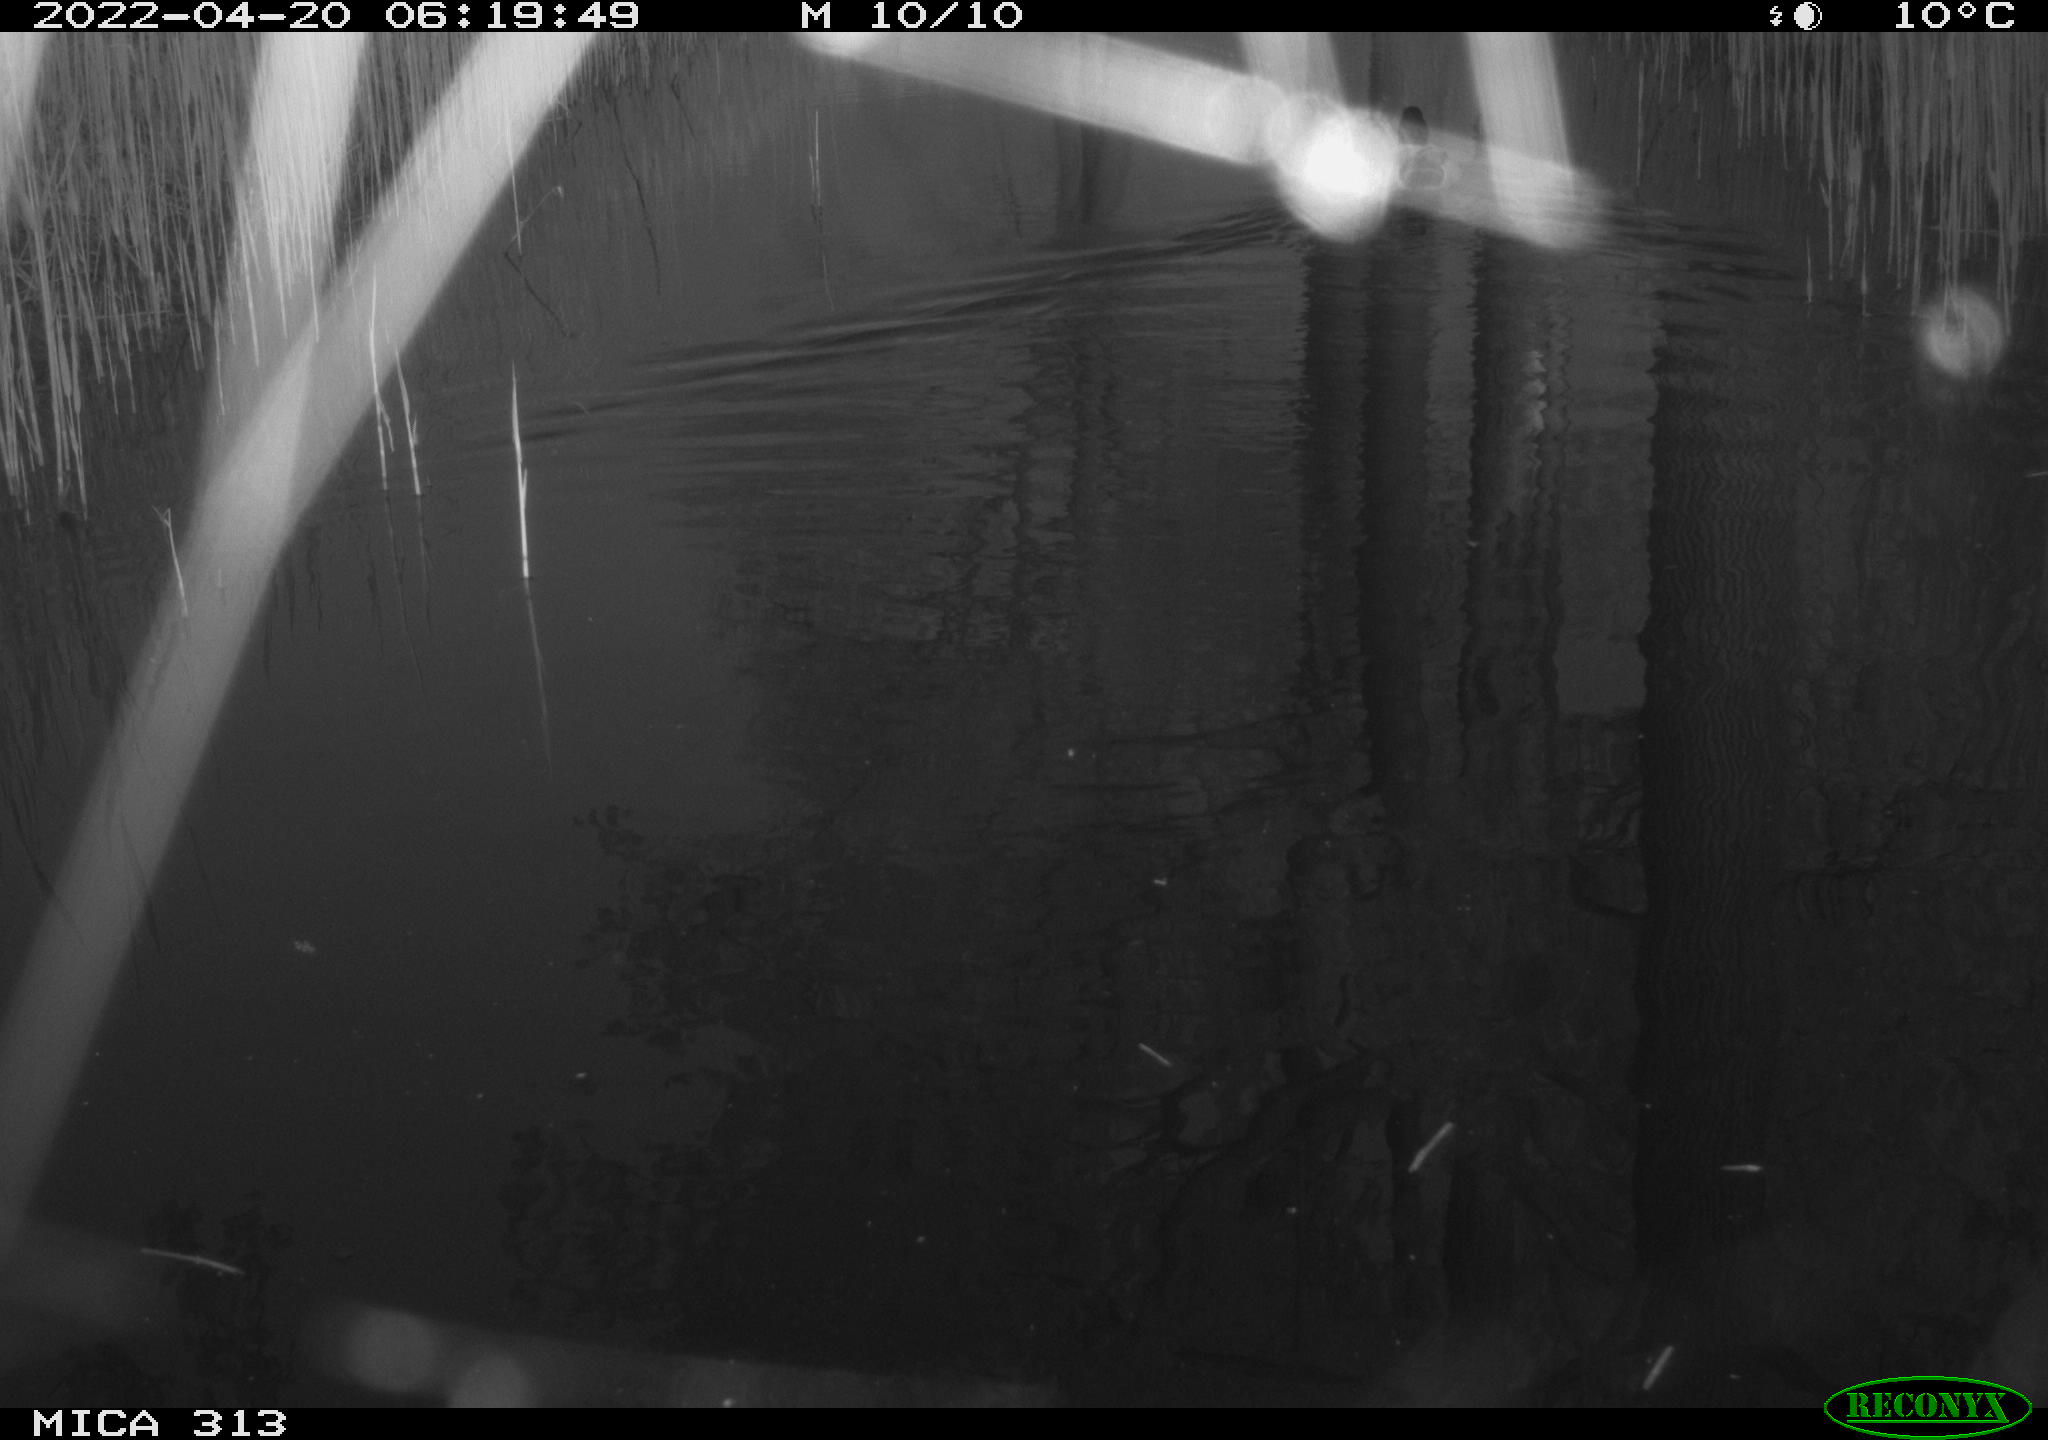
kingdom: Animalia
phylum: Chordata
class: Aves
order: Anseriformes
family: Anatidae
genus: Anas
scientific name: Anas platyrhynchos
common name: Mallard
